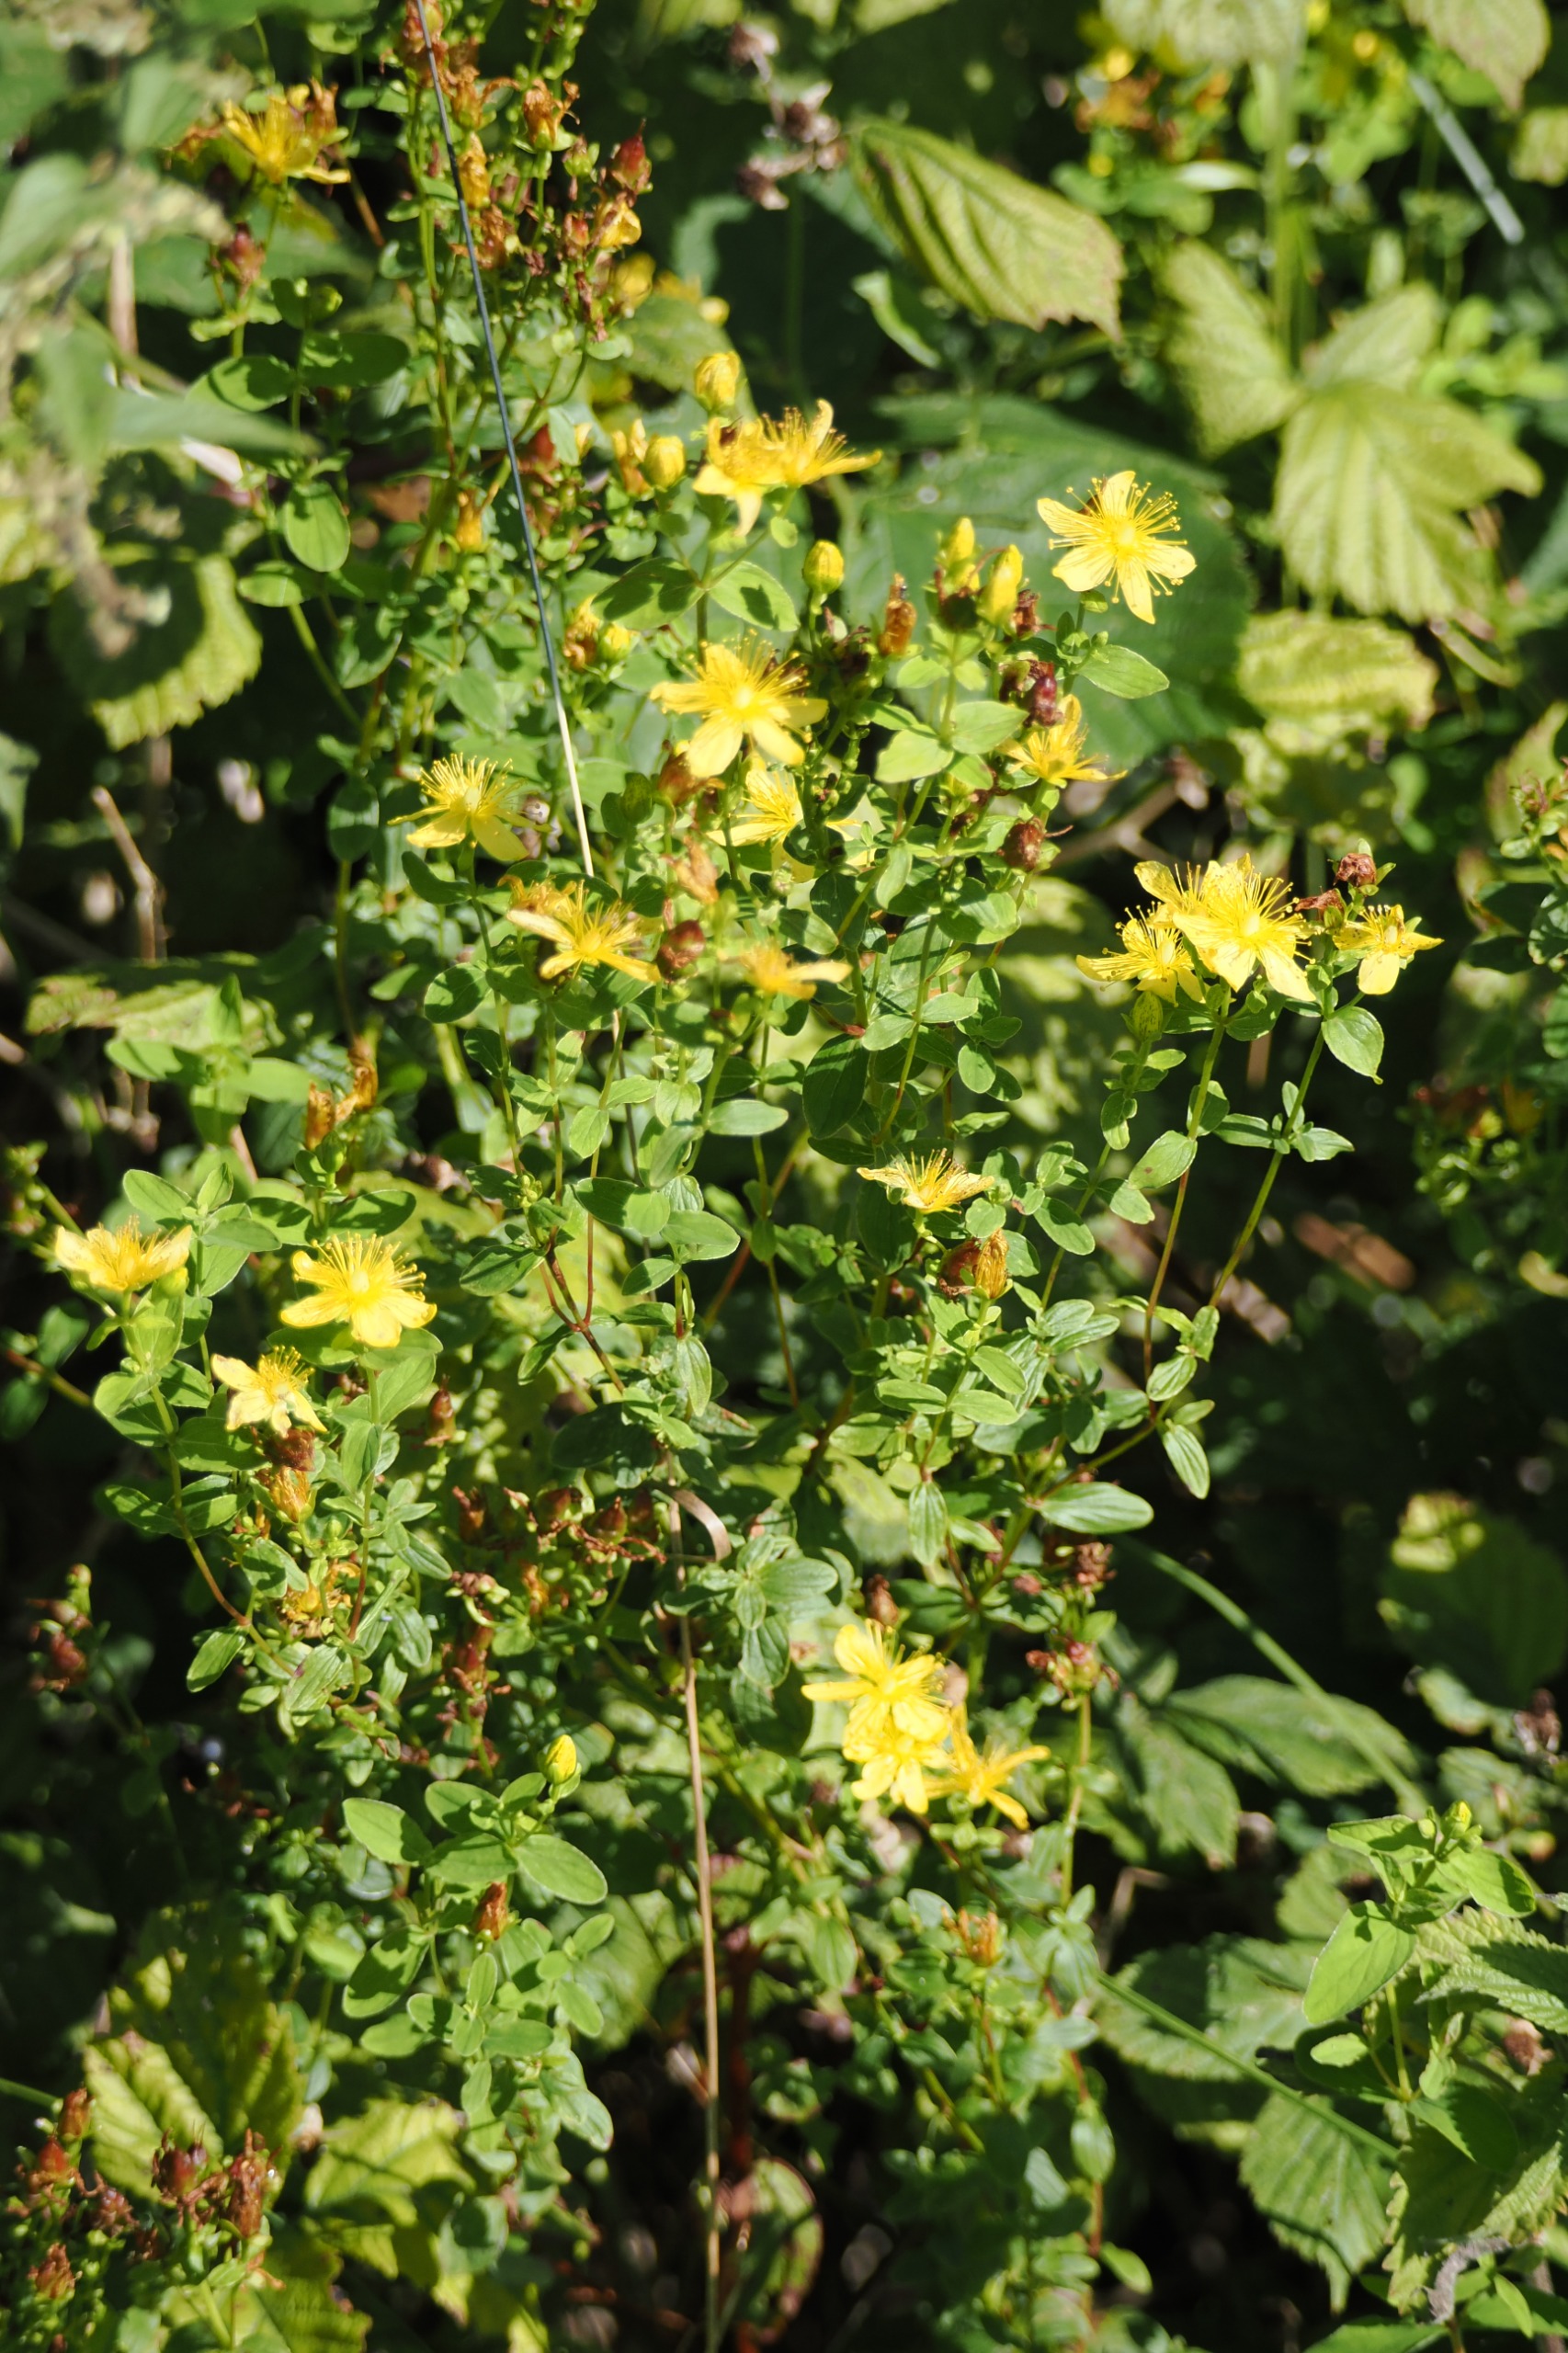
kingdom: Plantae
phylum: Tracheophyta
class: Magnoliopsida
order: Malpighiales
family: Hypericaceae
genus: Hypericum
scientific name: Hypericum maculatum
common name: Kantet perikon
